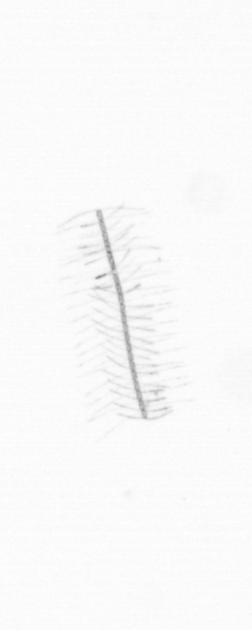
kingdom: Chromista
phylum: Ochrophyta
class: Bacillariophyceae
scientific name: Bacillariophyceae
